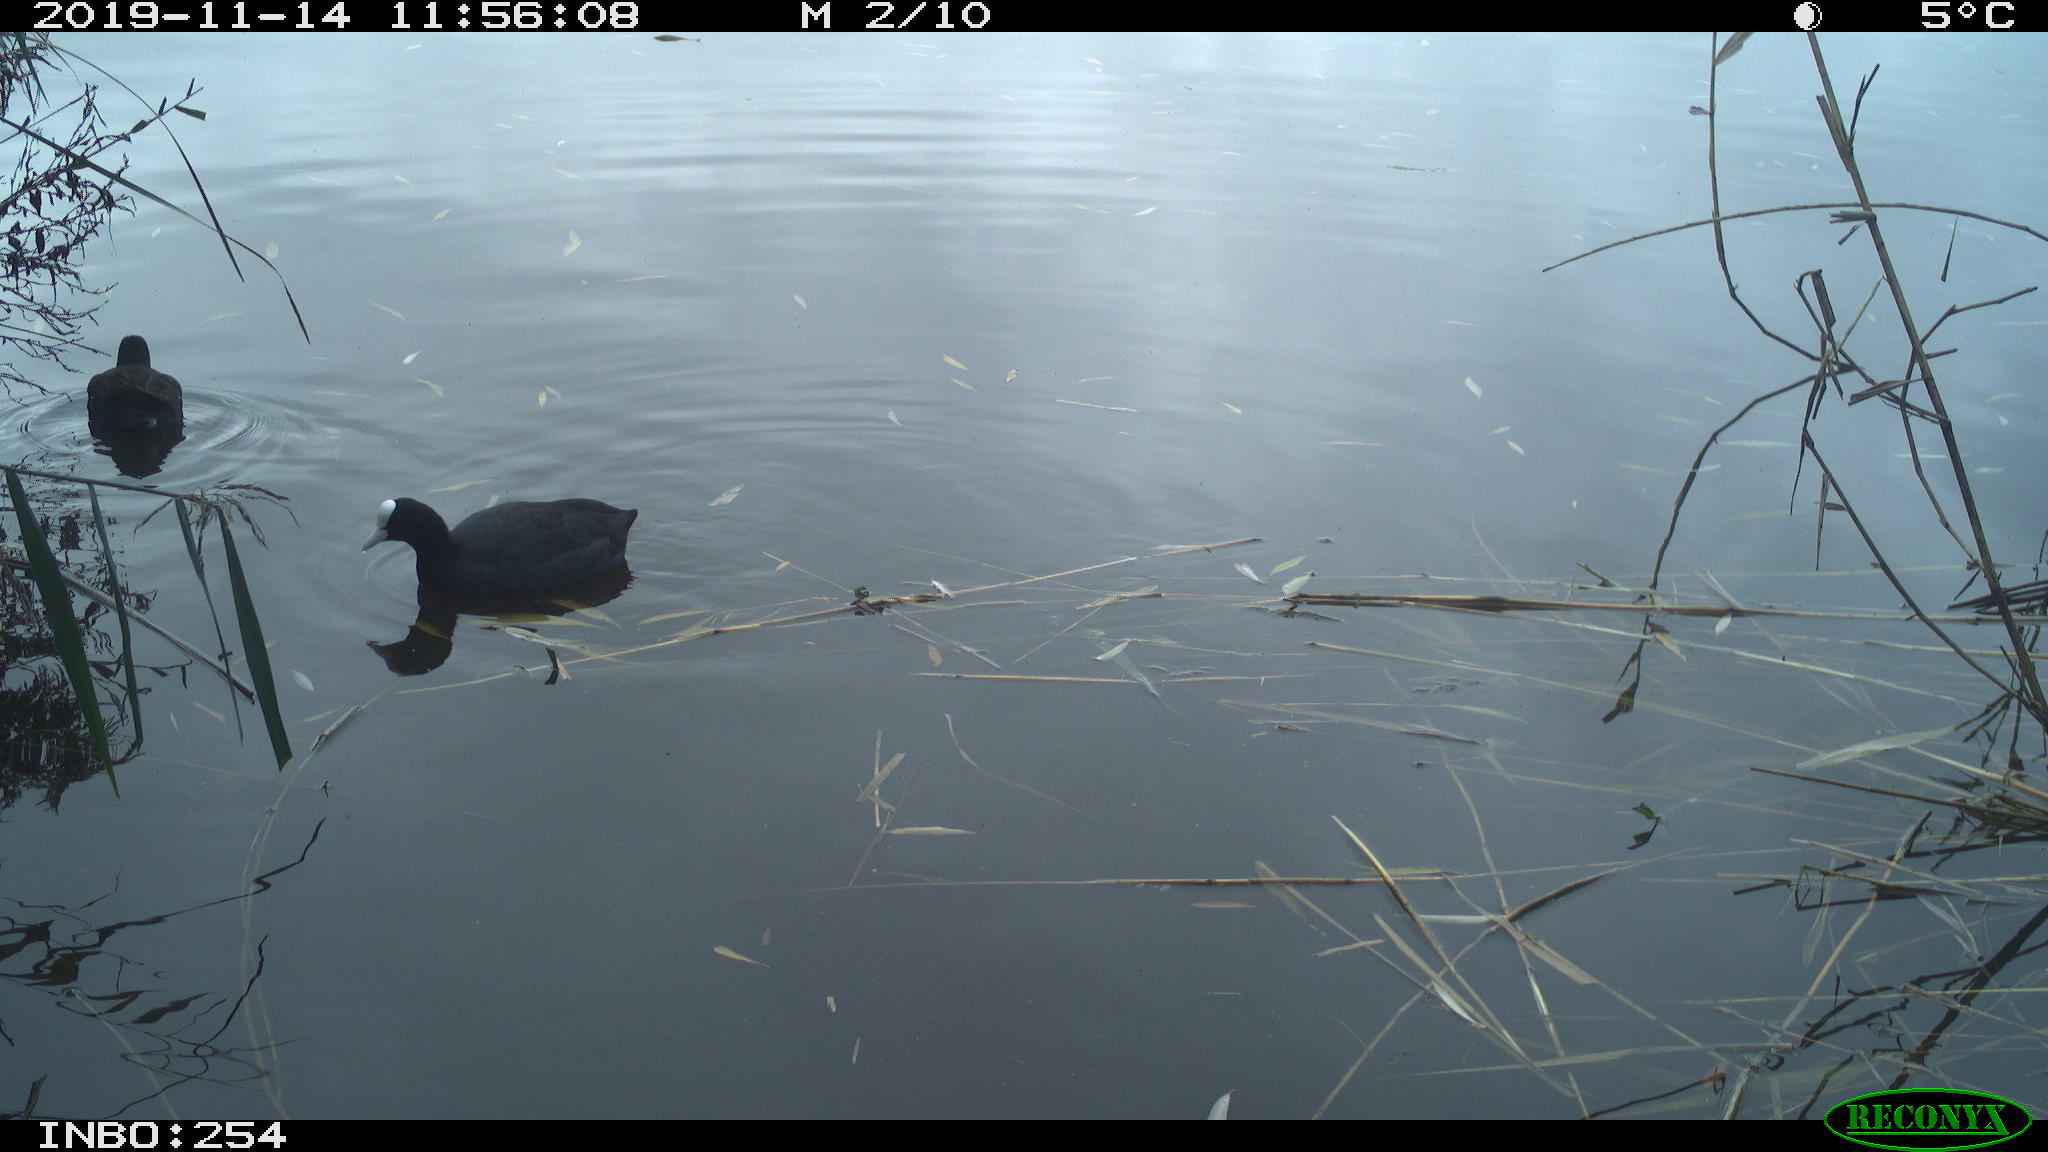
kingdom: Animalia
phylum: Chordata
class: Aves
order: Gruiformes
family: Rallidae
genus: Gallinula
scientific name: Gallinula chloropus
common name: Common moorhen
